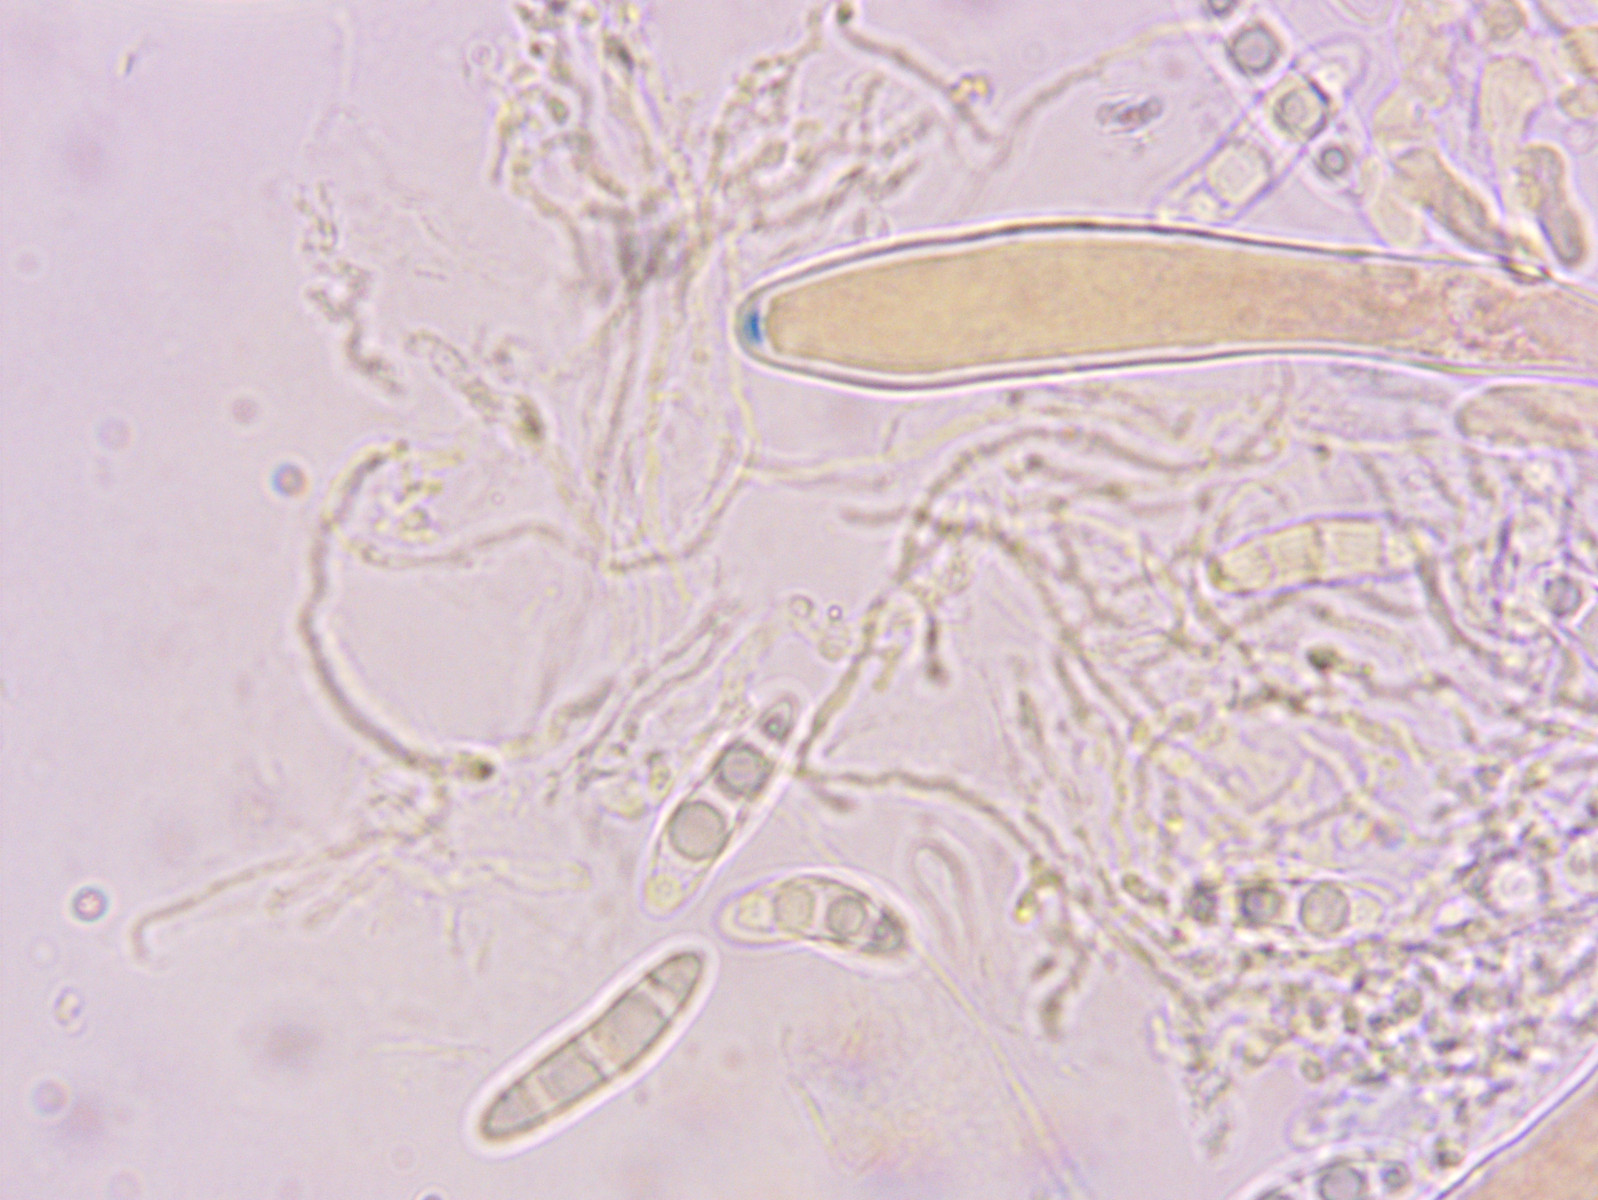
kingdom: Fungi
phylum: Ascomycota
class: Leotiomycetes
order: Helotiales
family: Hyaloscyphaceae
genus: Polydesmia
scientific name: Polydesmia pruinosa
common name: dunskive
